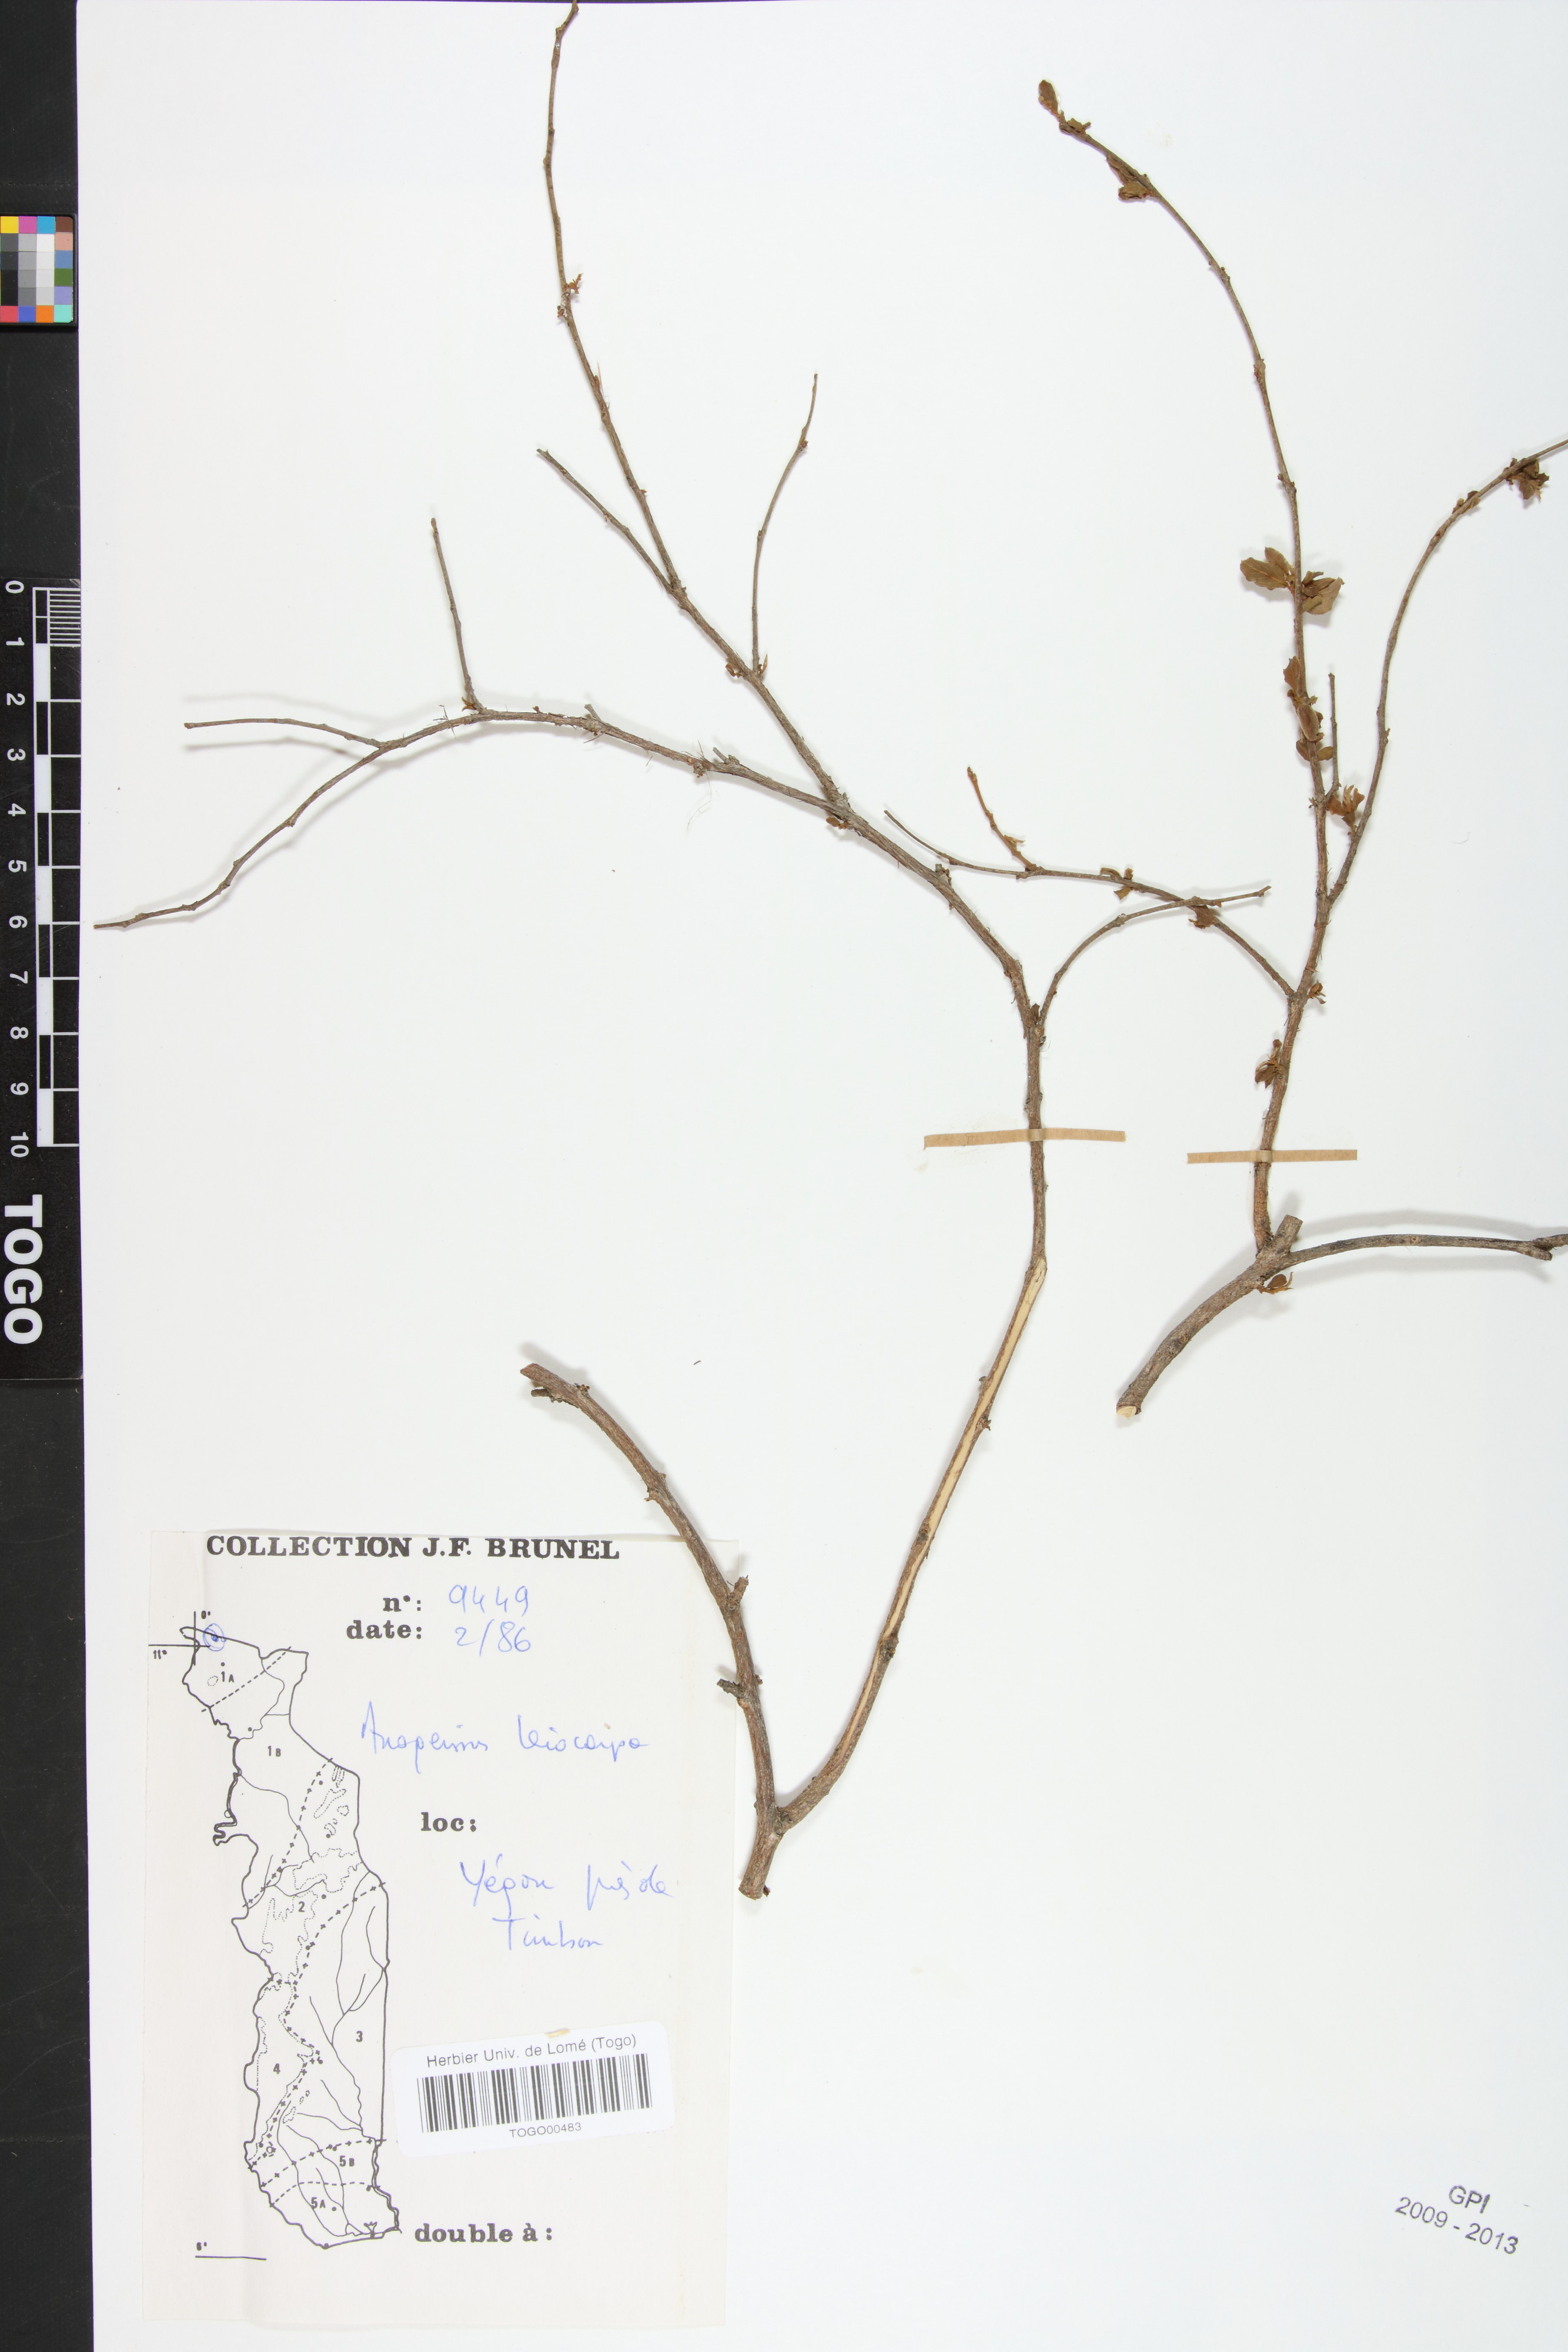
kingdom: Plantae
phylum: Tracheophyta
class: Magnoliopsida
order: Myrtales
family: Combretaceae
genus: Terminalia
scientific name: Terminalia leiocarpa
